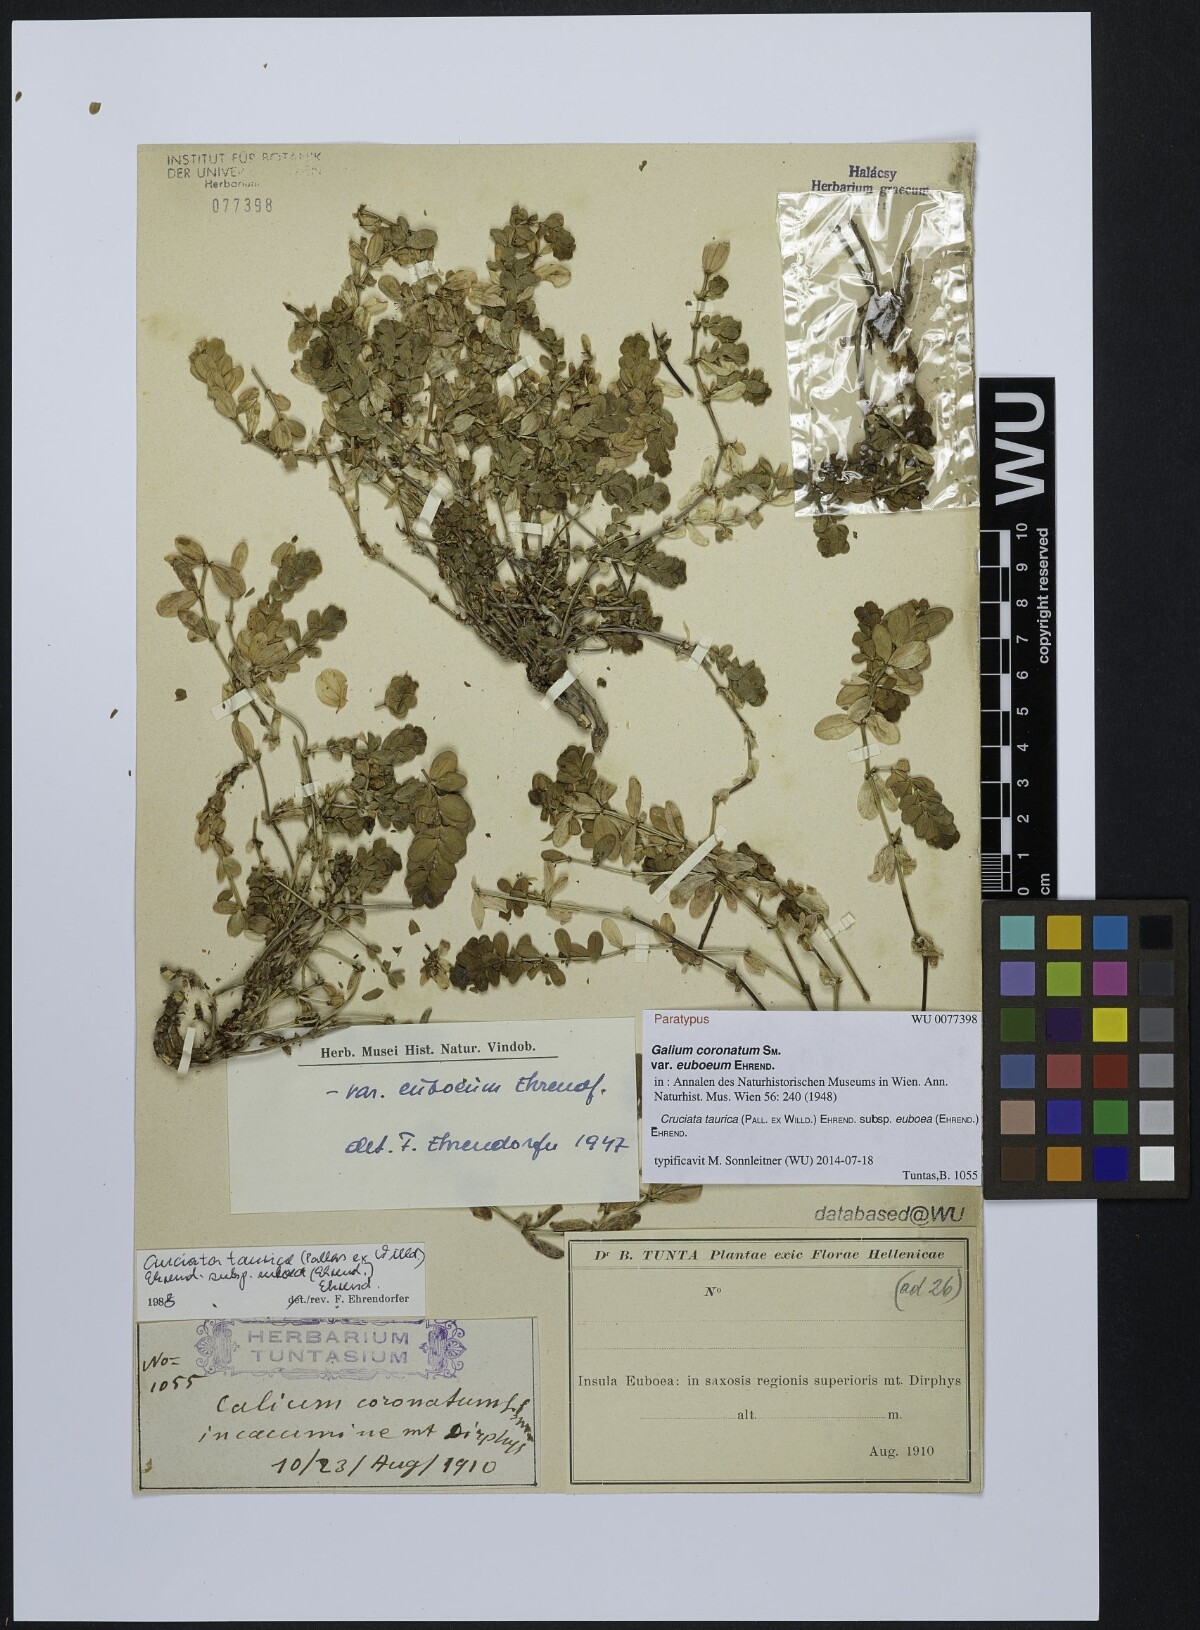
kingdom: Plantae
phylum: Tracheophyta
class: Magnoliopsida
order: Gentianales
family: Rubiaceae
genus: Cruciata
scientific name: Cruciata taurica
